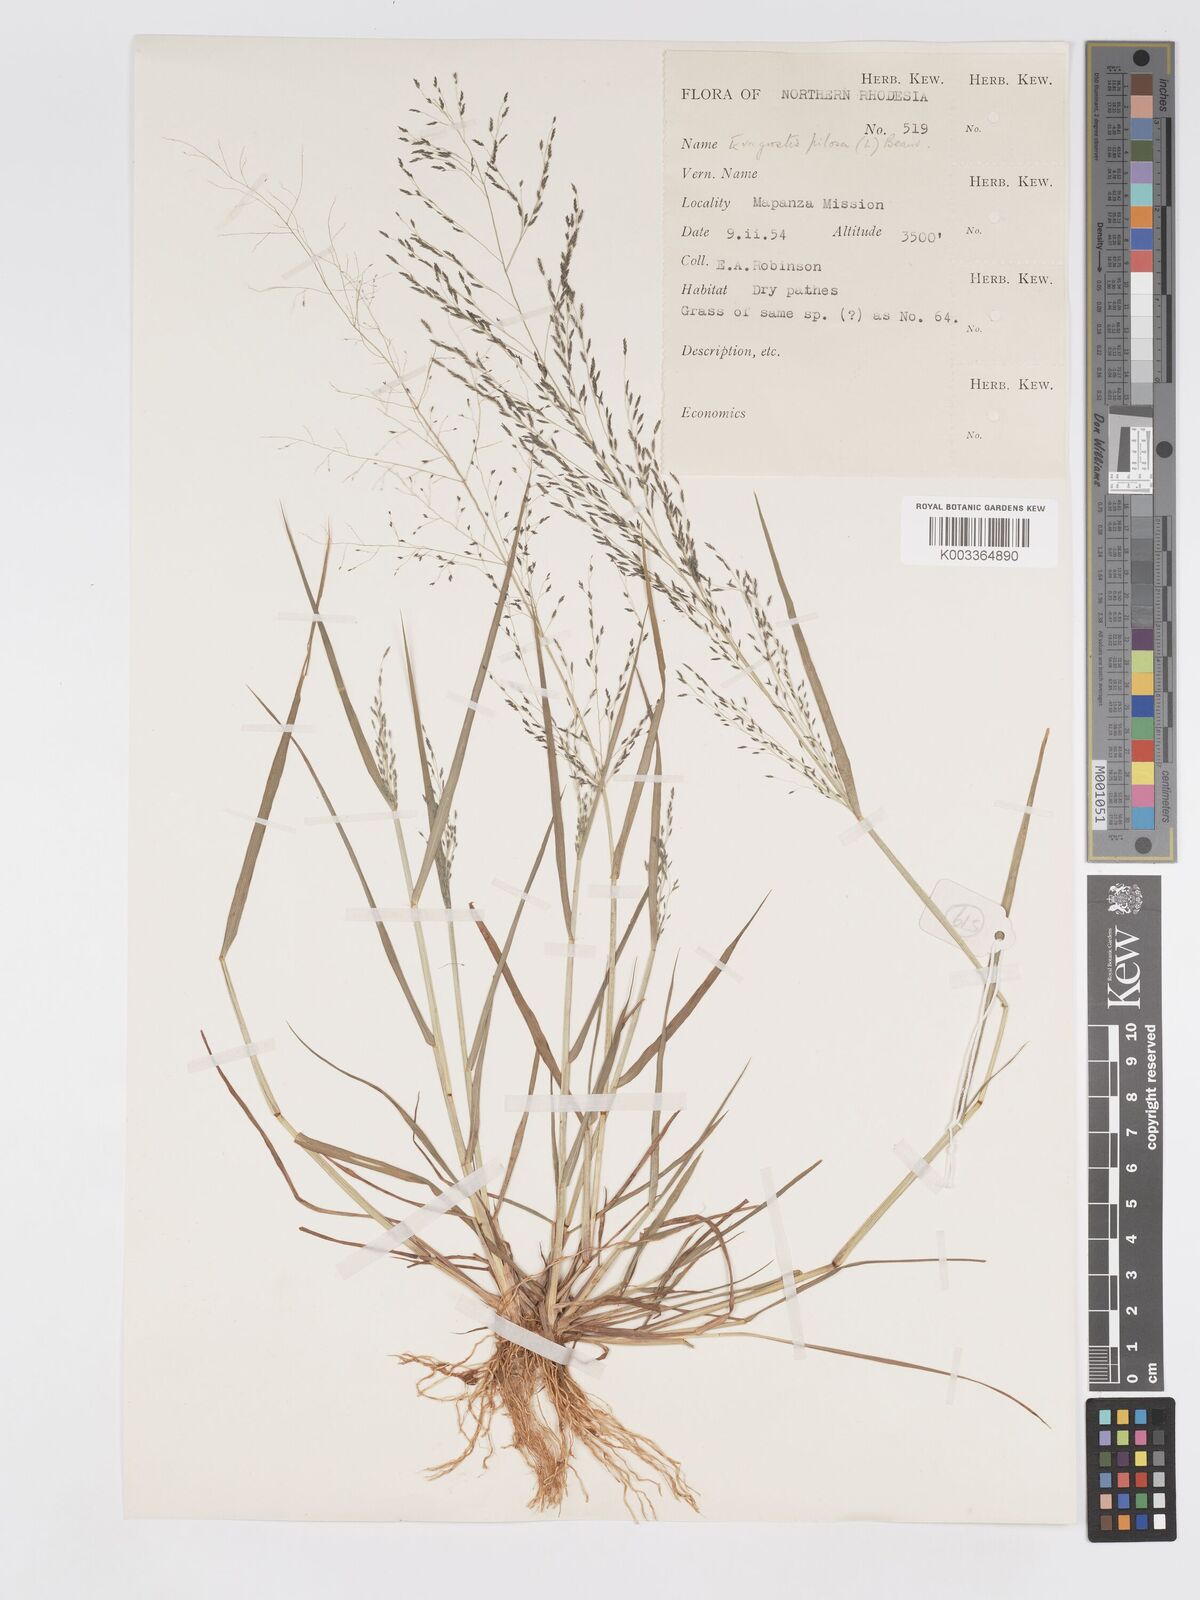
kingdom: Plantae
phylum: Tracheophyta
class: Liliopsida
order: Poales
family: Poaceae
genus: Eragrostis
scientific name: Eragrostis pilosa
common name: Indian lovegrass
